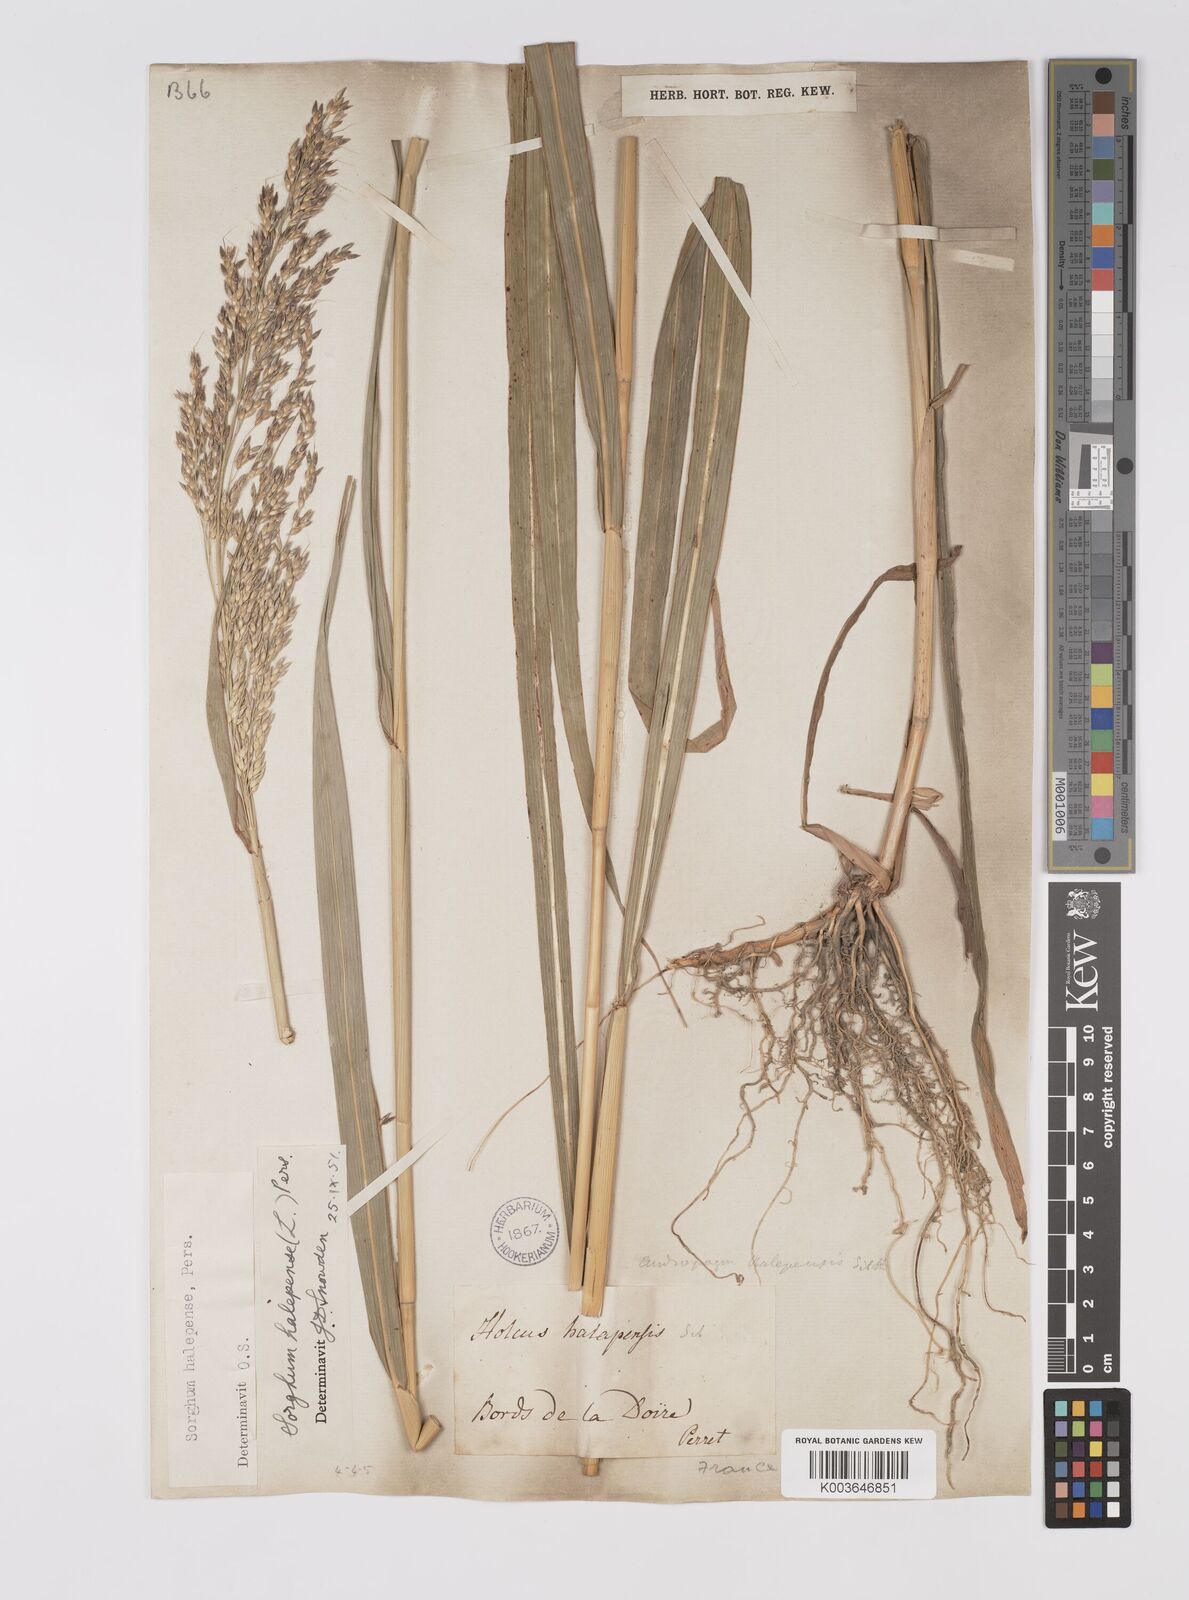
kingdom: Plantae
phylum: Tracheophyta
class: Liliopsida
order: Poales
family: Poaceae
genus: Sorghum
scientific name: Sorghum halepense
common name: Johnson-grass
